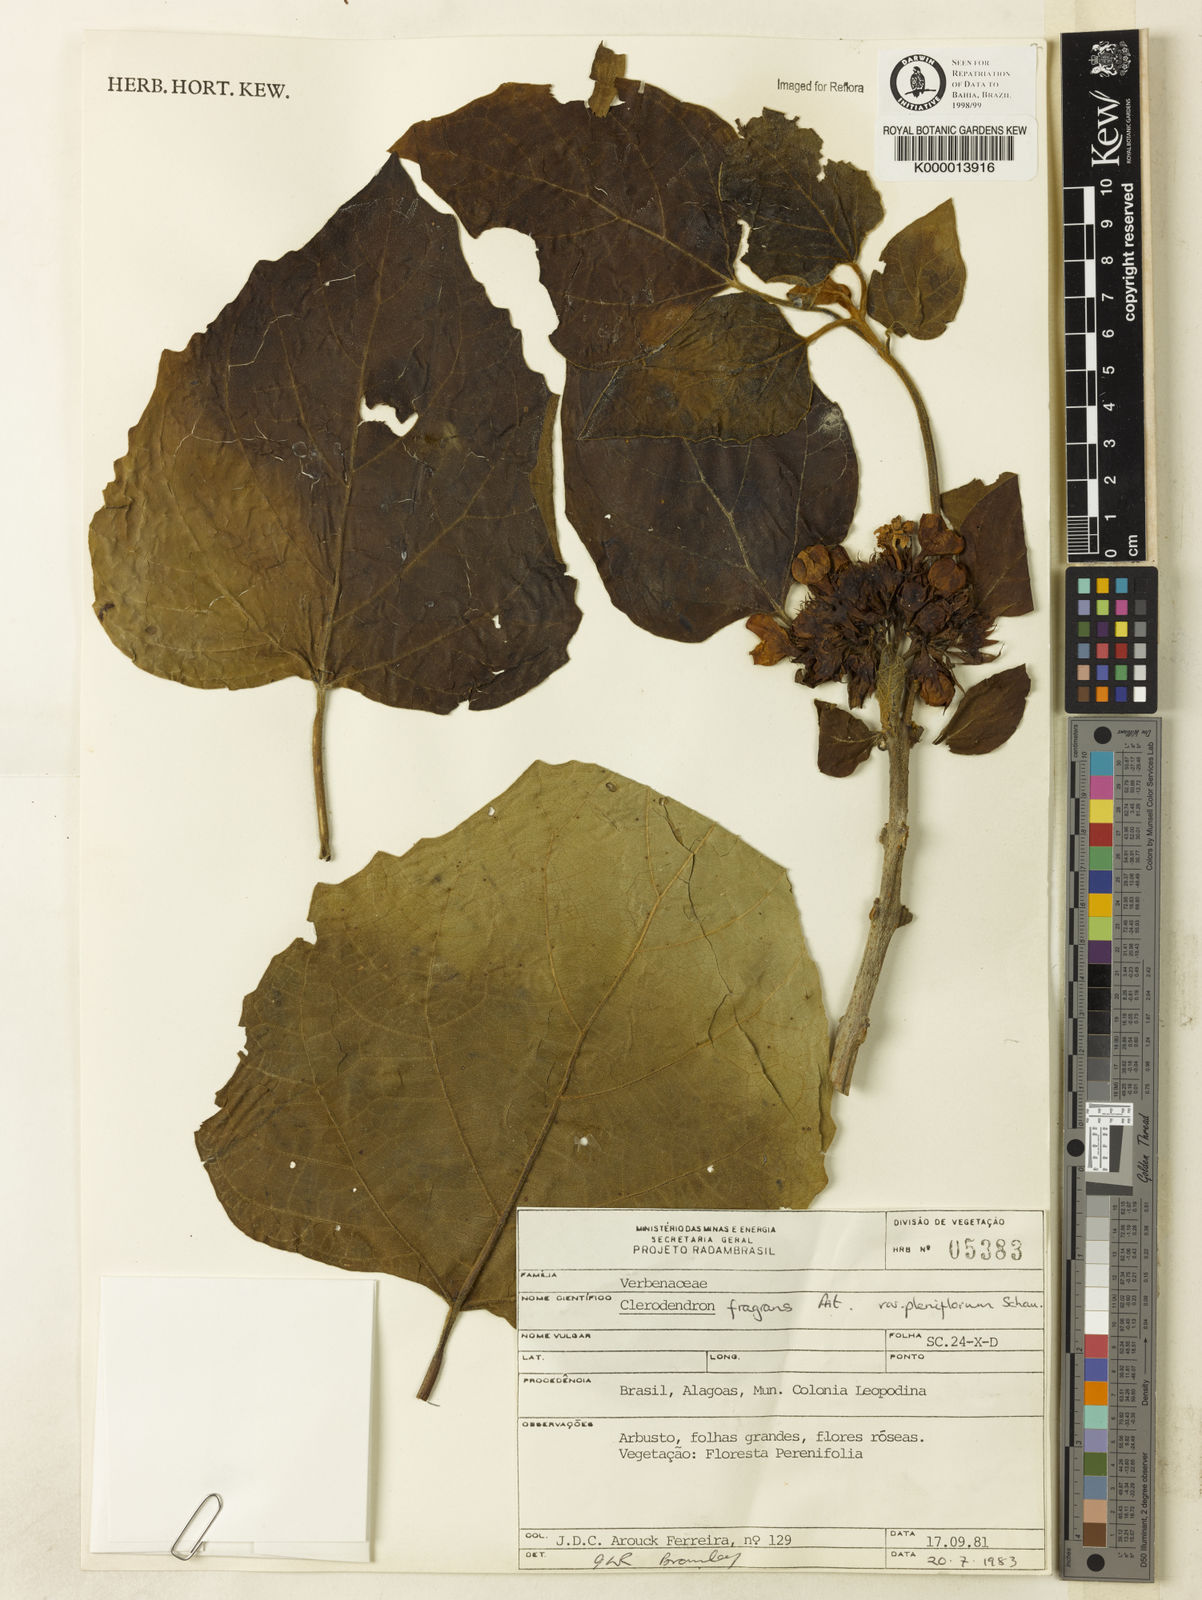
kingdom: Plantae
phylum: Tracheophyta
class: Magnoliopsida
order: Lamiales
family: Lamiaceae
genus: Clerodendrum
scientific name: Clerodendrum chinense
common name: Stickbush
